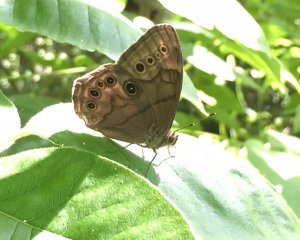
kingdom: Animalia
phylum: Arthropoda
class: Insecta
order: Lepidoptera
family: Nymphalidae
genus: Lethe
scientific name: Lethe anthedon
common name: Northern Pearly-Eye
